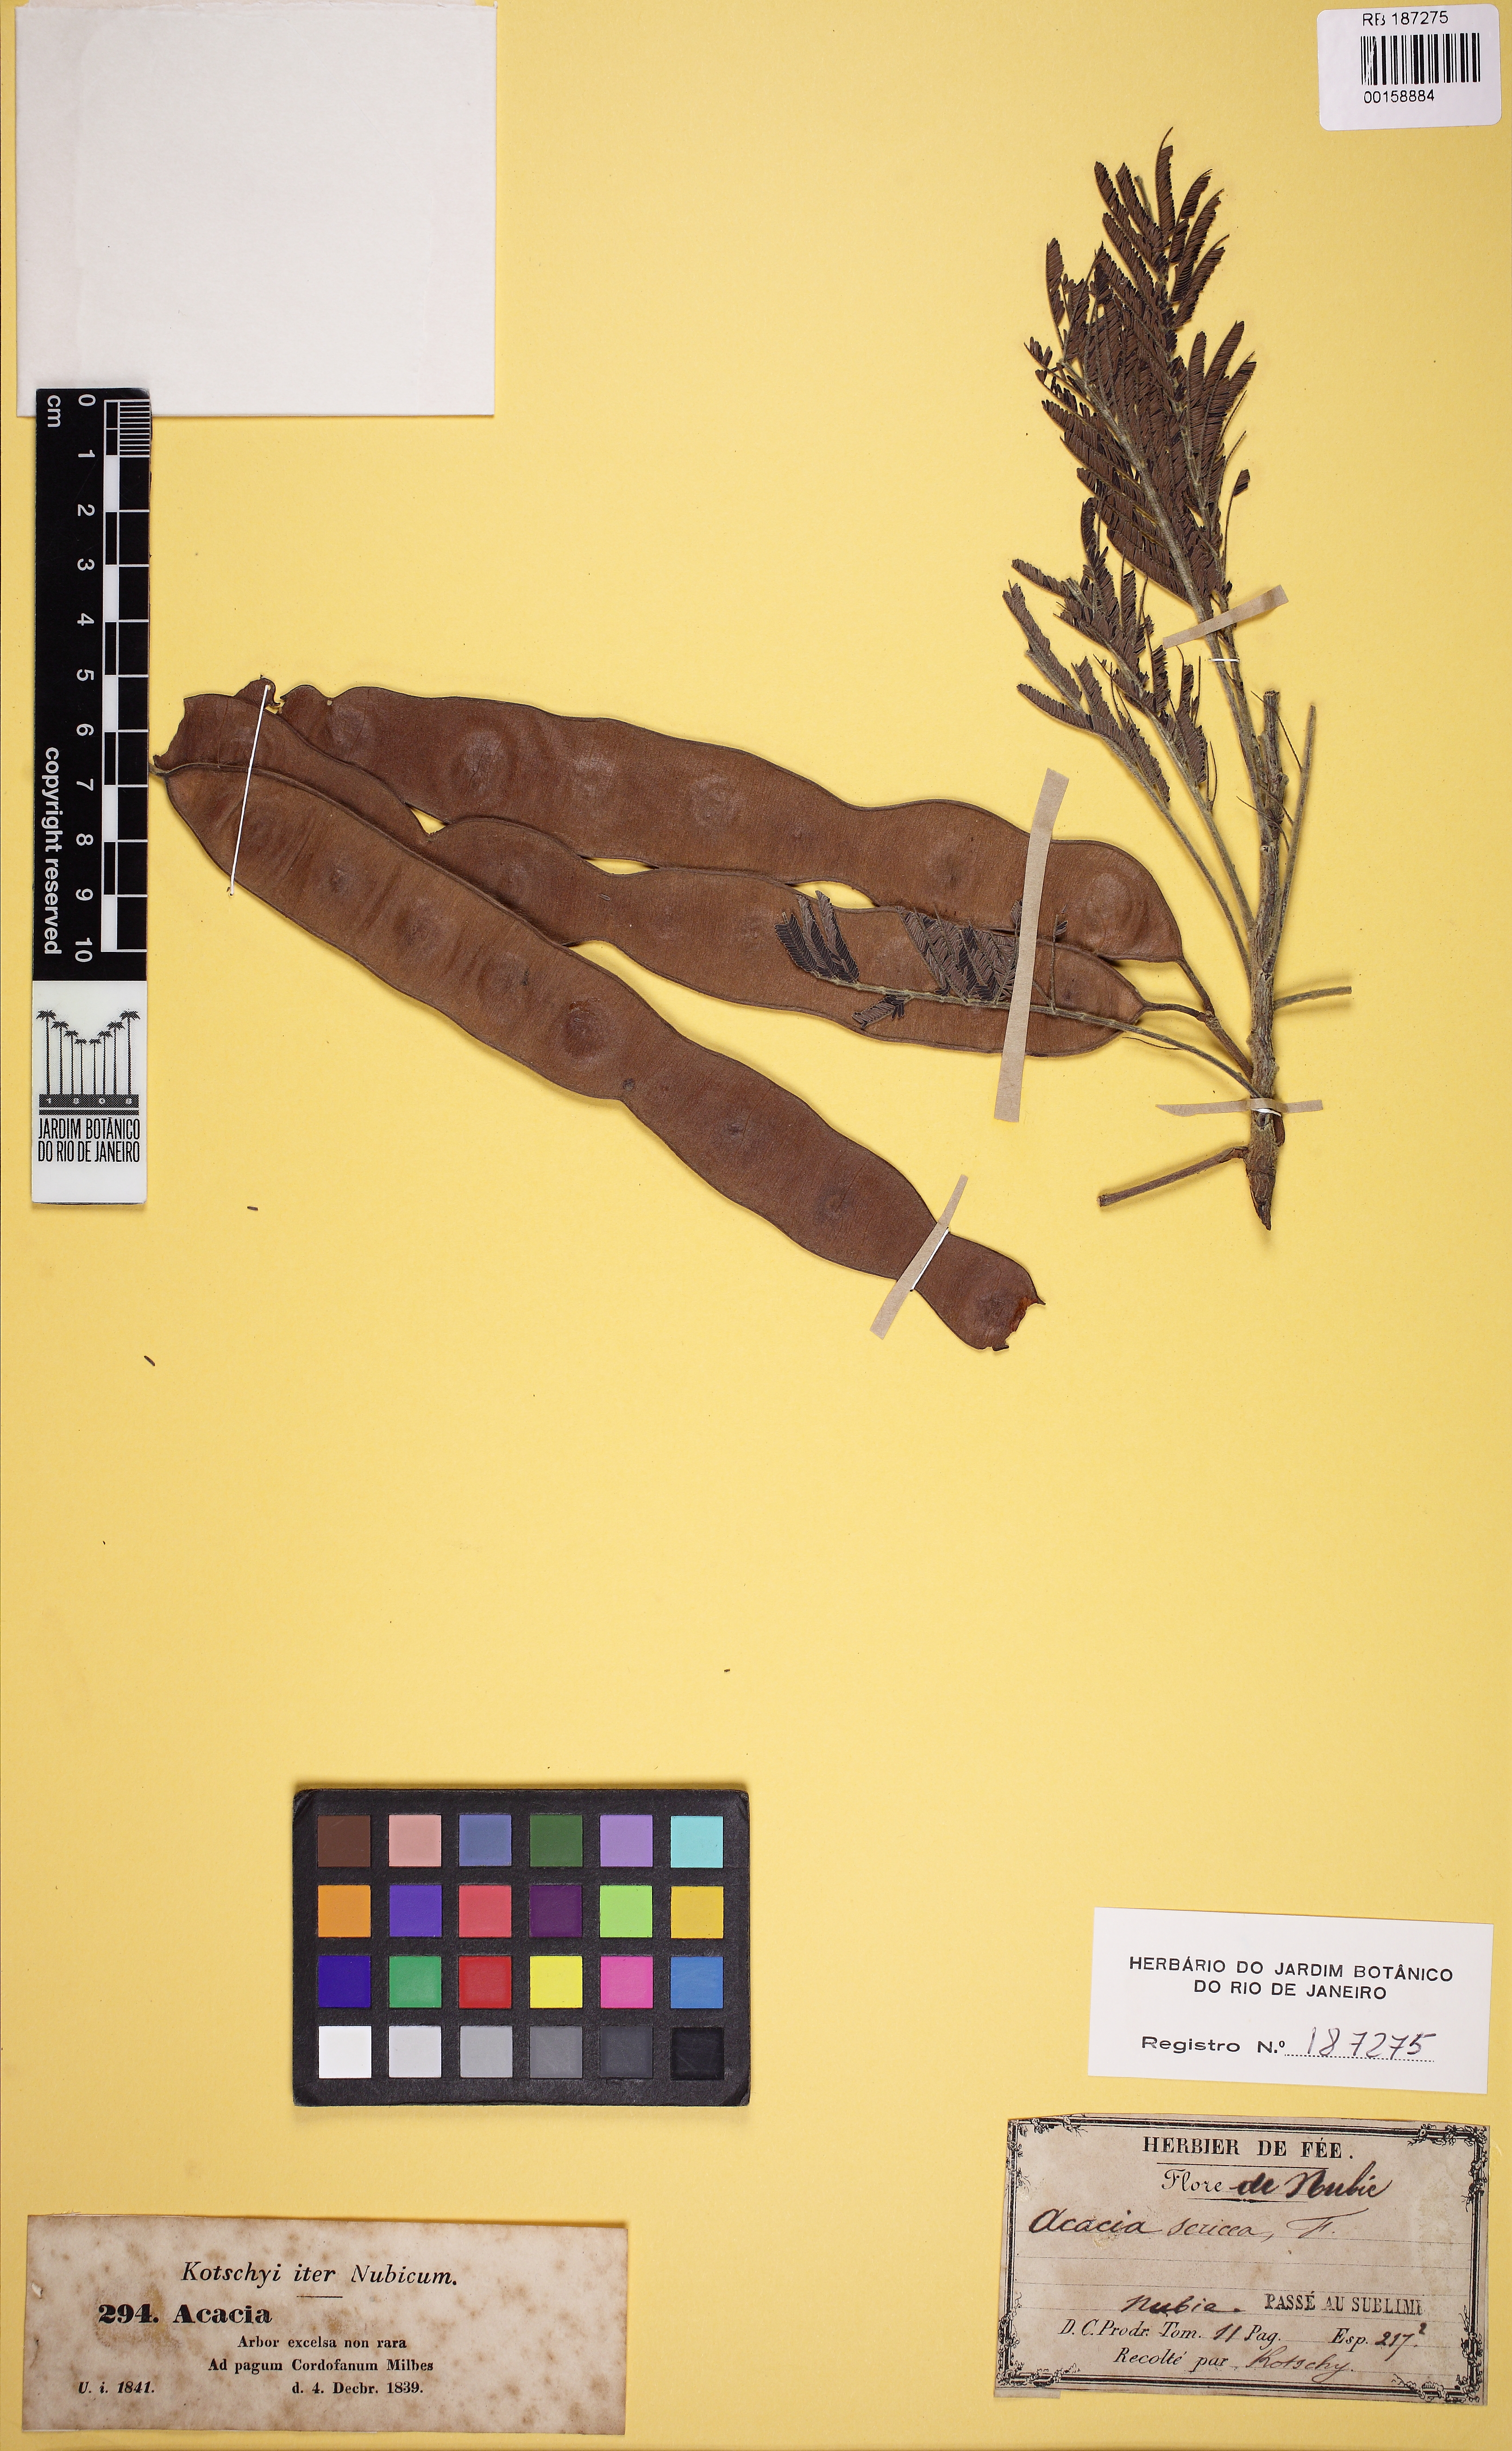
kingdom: Plantae
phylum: Tracheophyta
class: Magnoliopsida
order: Fabales
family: Fabaceae
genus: Mariosousa
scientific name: Mariosousa sericea
